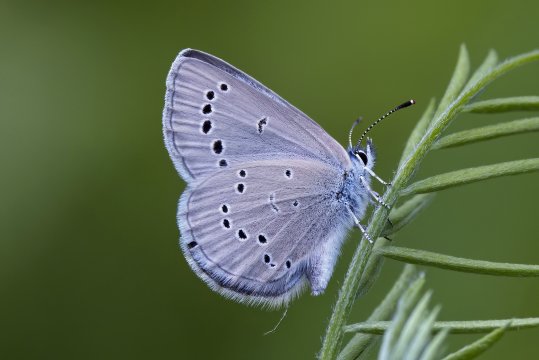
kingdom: Animalia
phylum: Arthropoda
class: Insecta
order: Lepidoptera
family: Lycaenidae
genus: Glaucopsyche
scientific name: Glaucopsyche lygdamus
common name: Silvery Blue
